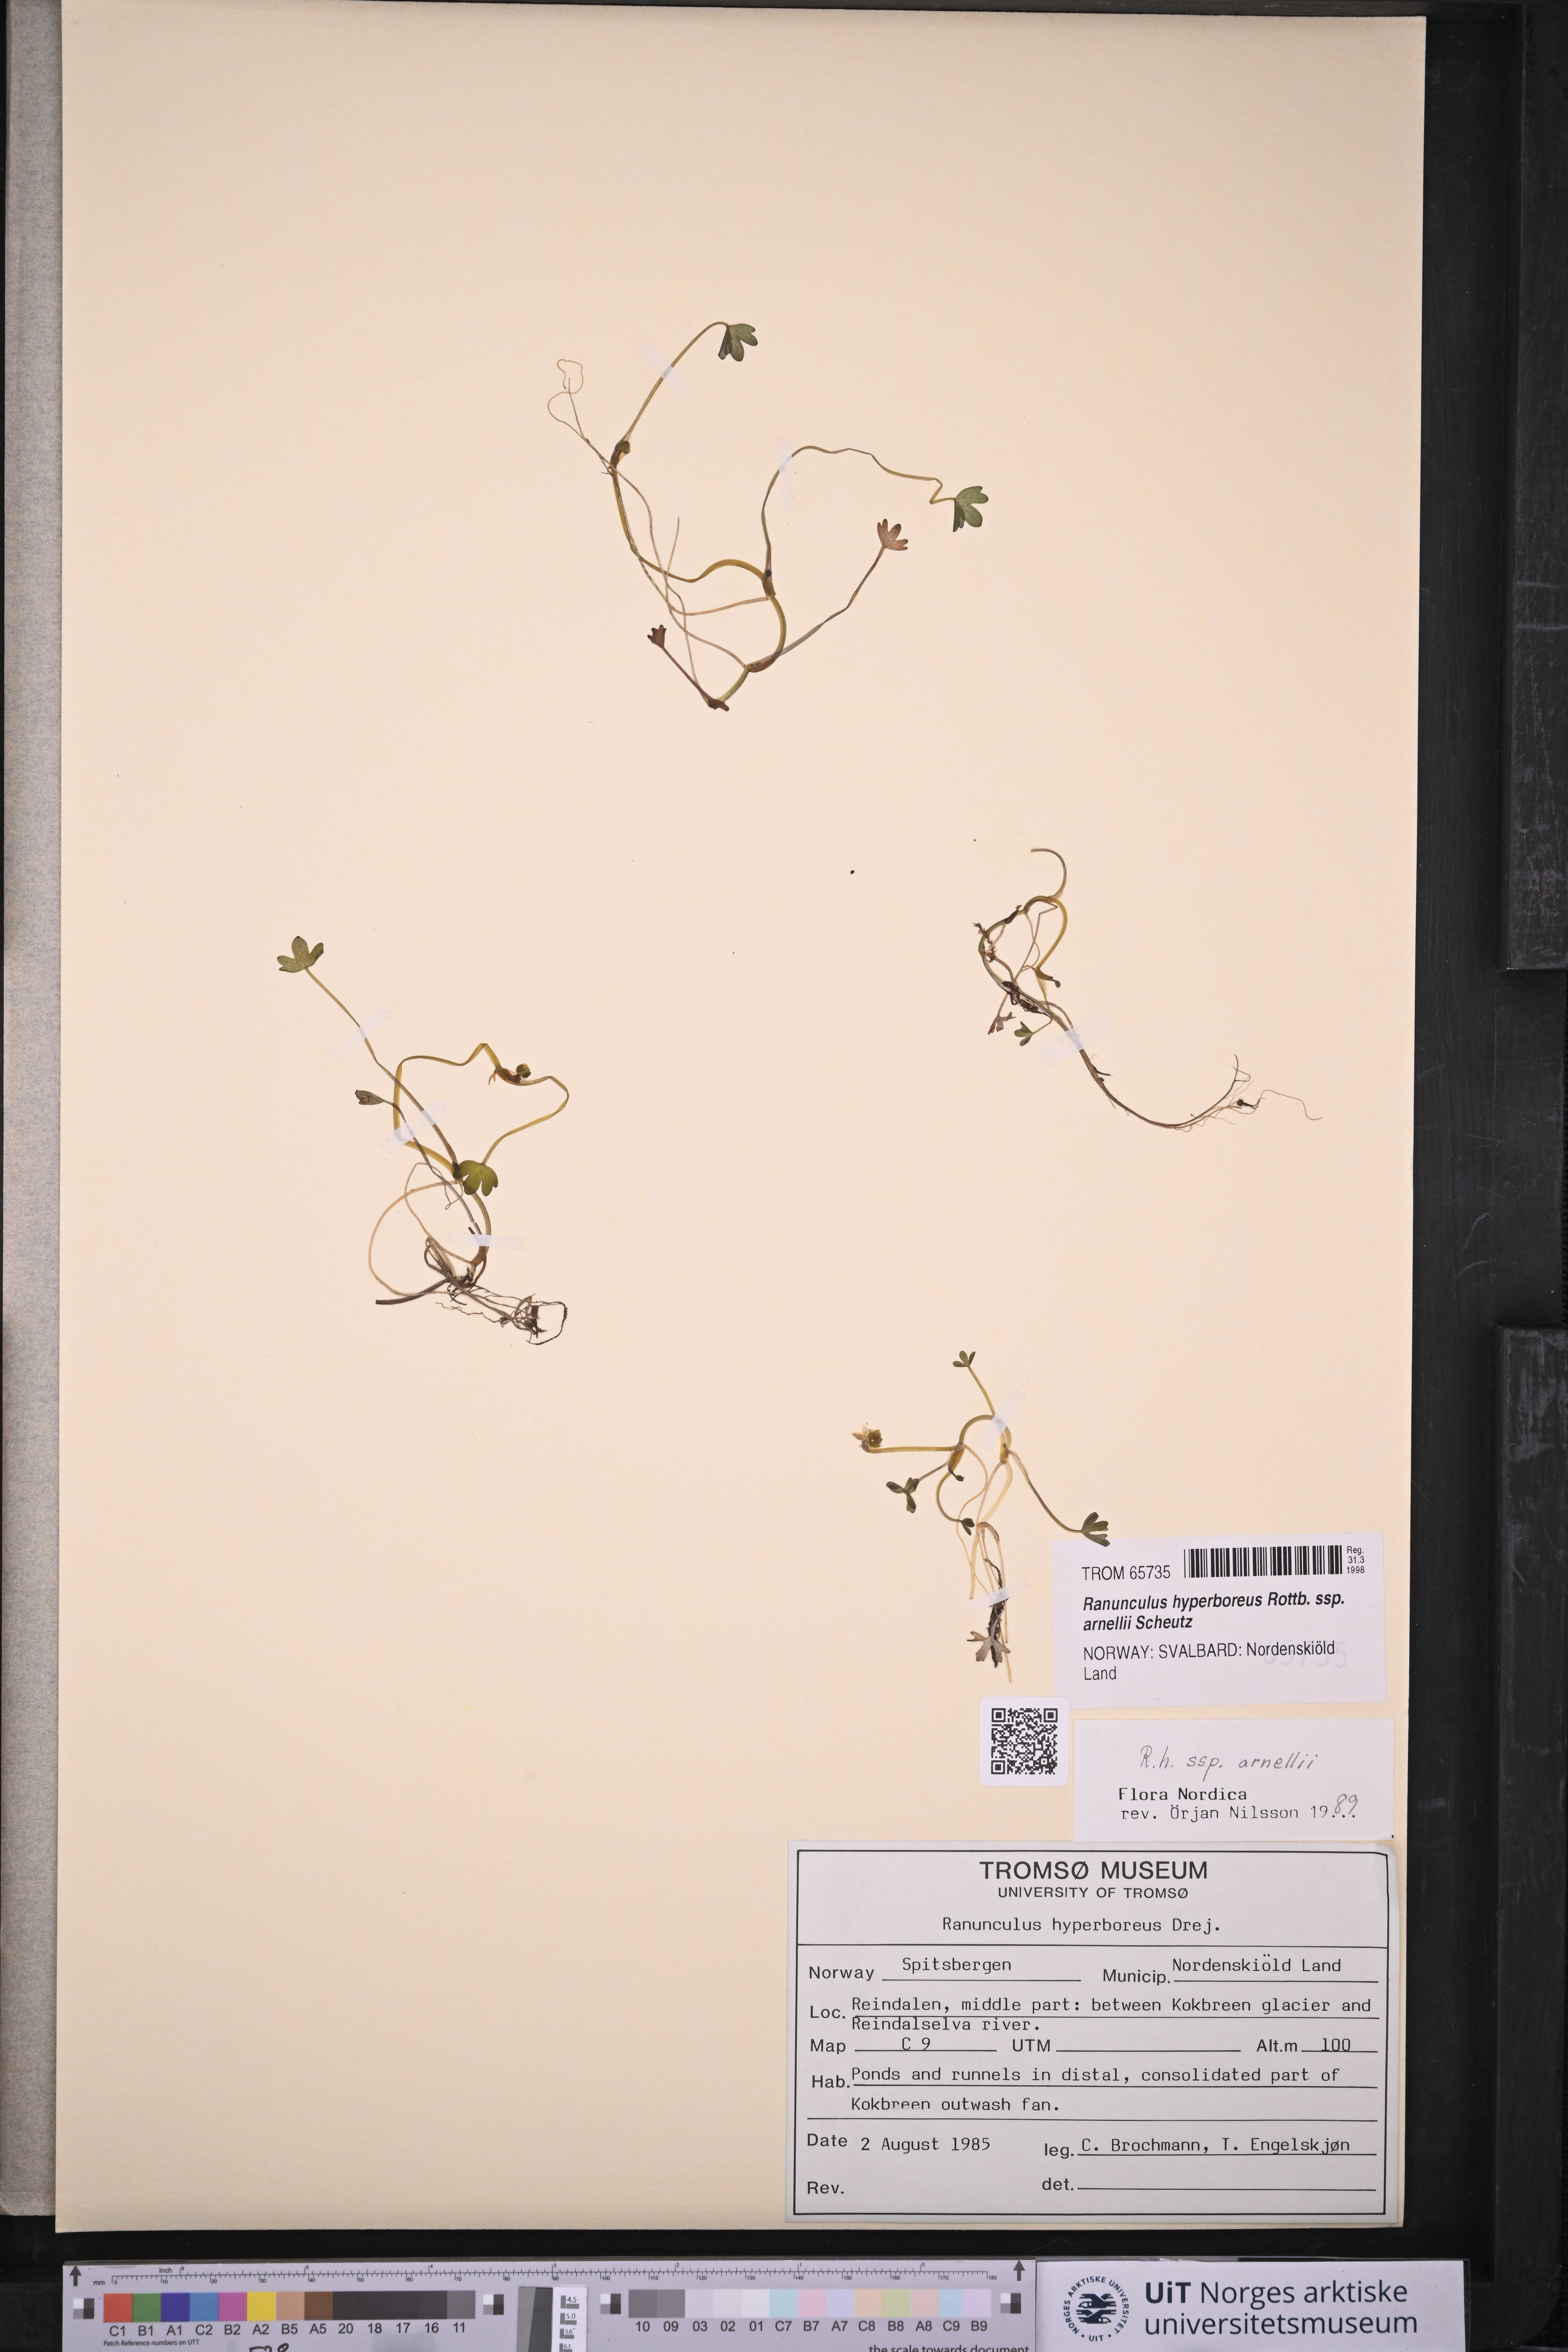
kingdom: Plantae
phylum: Tracheophyta
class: Magnoliopsida
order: Ranunculales
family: Ranunculaceae
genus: Ranunculus
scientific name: Ranunculus hyperboreus
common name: Arctic buttercup
